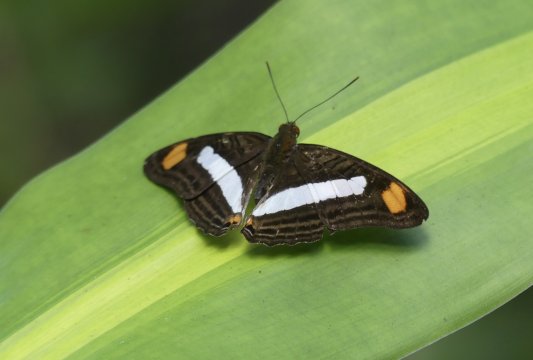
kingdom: Animalia
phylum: Arthropoda
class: Insecta
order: Lepidoptera
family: Nymphalidae
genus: Limenitis
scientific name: Limenitis iphiclus
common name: Iphicleola Sister
